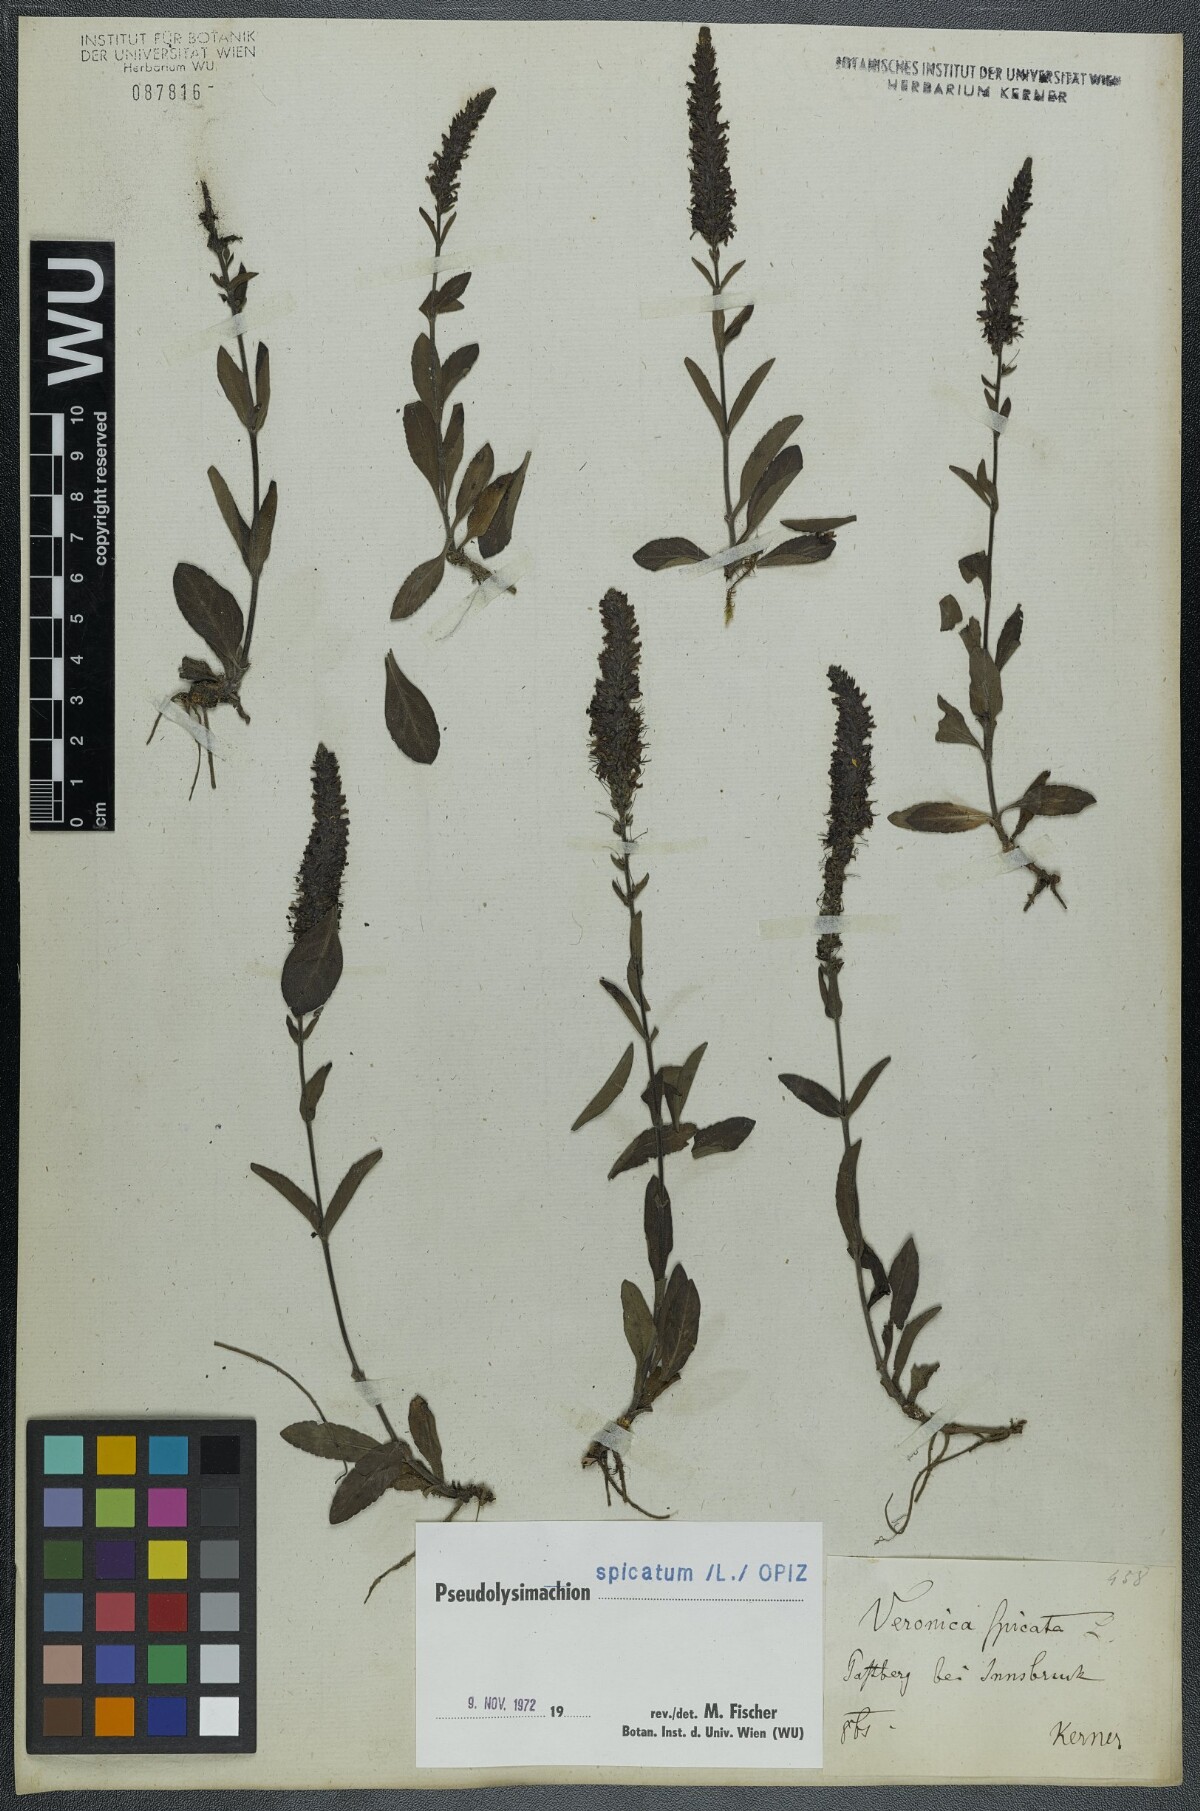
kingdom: Plantae
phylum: Tracheophyta
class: Magnoliopsida
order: Lamiales
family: Plantaginaceae
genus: Veronica
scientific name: Veronica spicata
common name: Spiked speedwell
